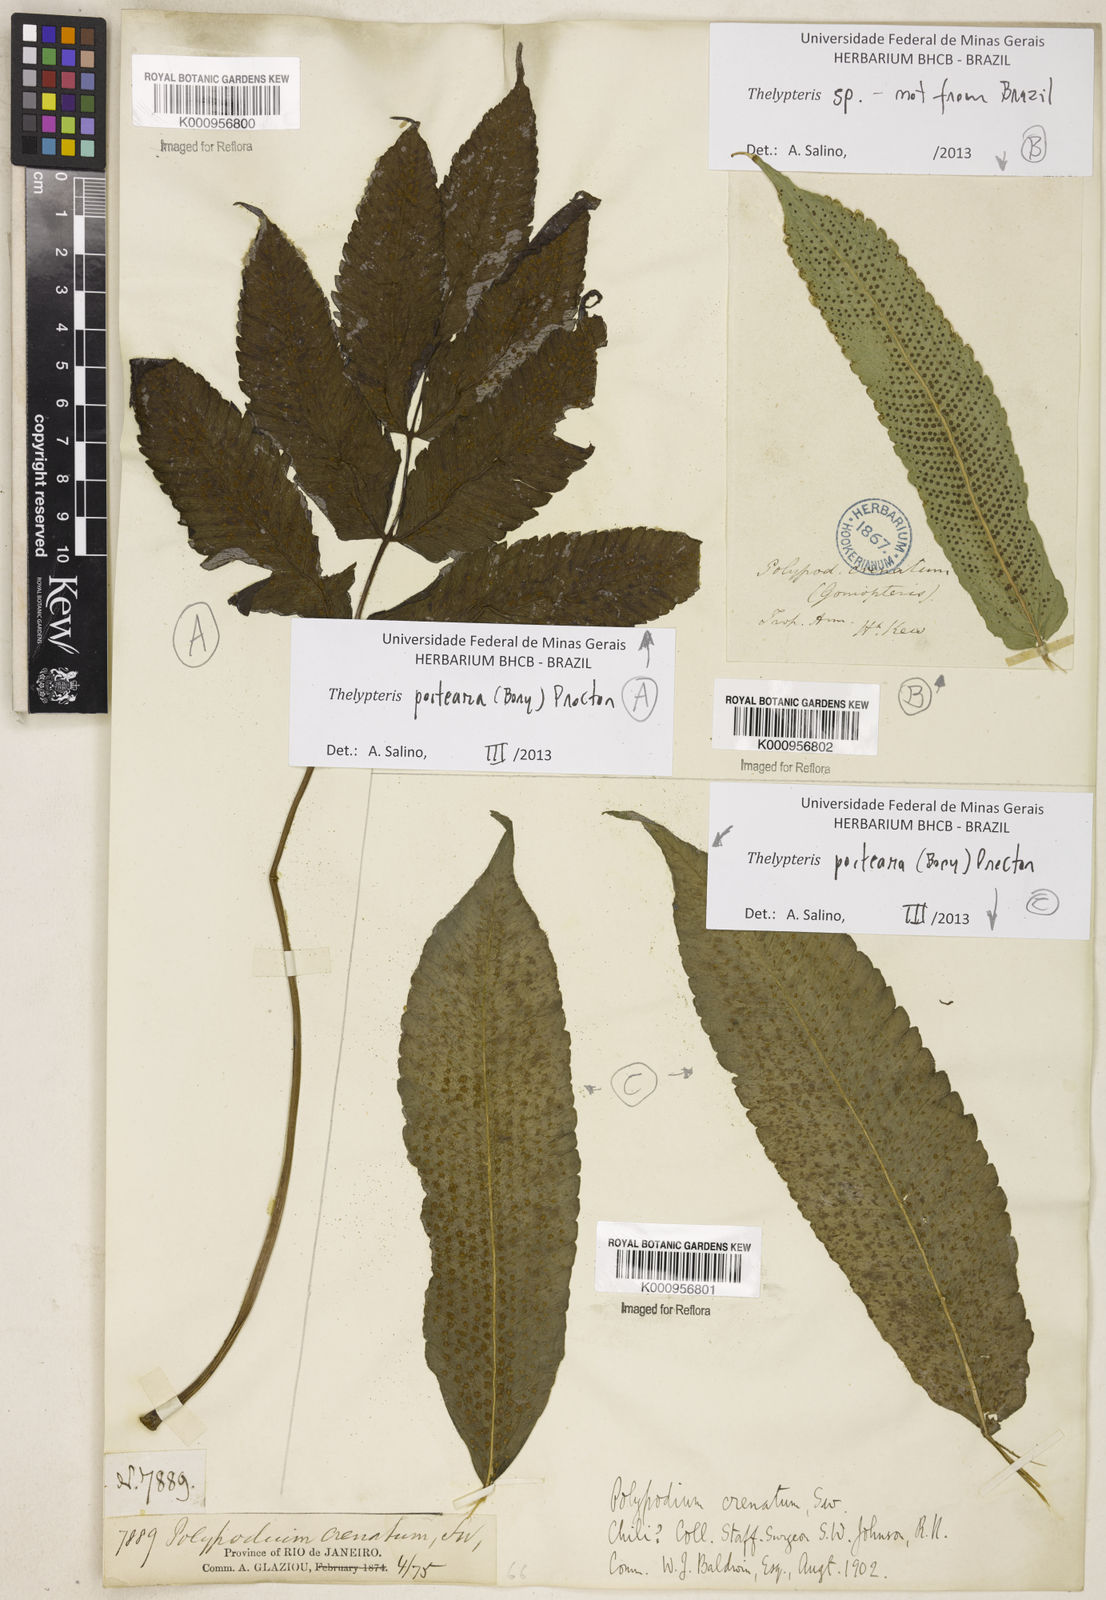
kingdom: Plantae
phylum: Tracheophyta
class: Polypodiopsida
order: Polypodiales
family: Thelypteridaceae
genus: Goniopteris
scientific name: Goniopteris poiteana
